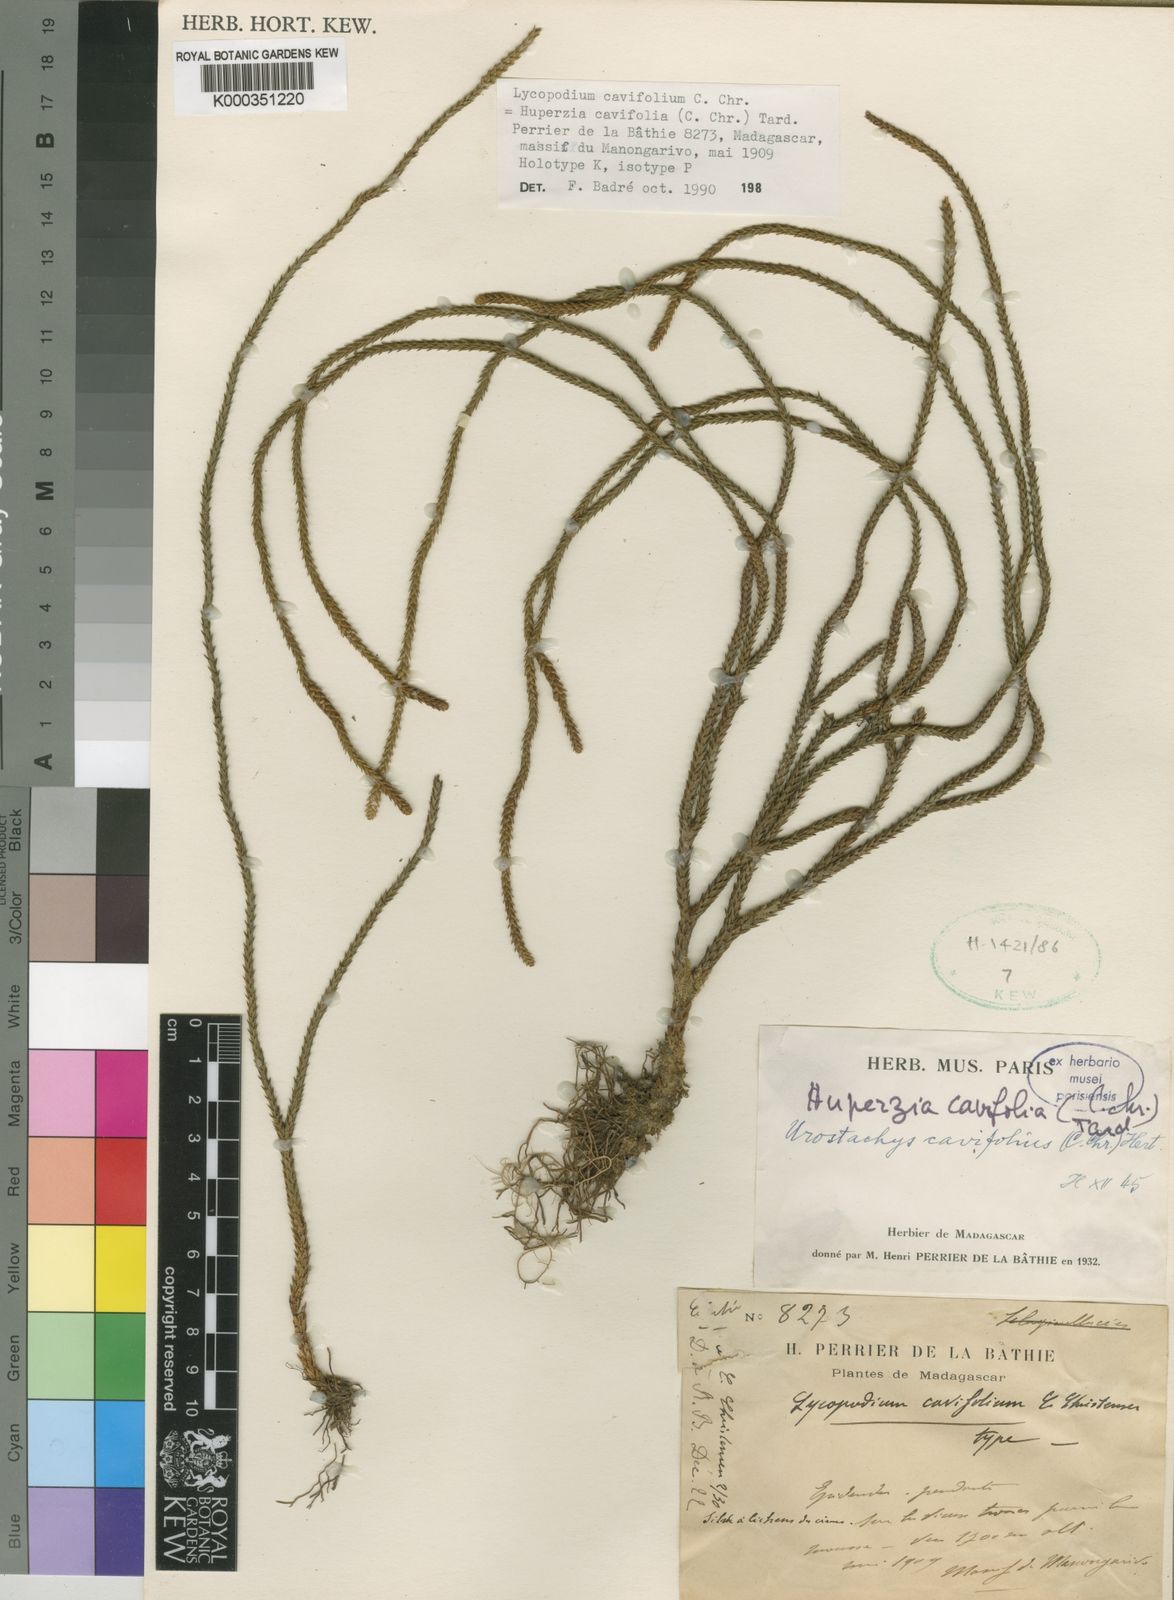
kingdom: Plantae
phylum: Tracheophyta
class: Lycopodiopsida
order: Lycopodiales
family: Lycopodiaceae
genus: Phlegmariurus
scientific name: Phlegmariurus cavifolius
